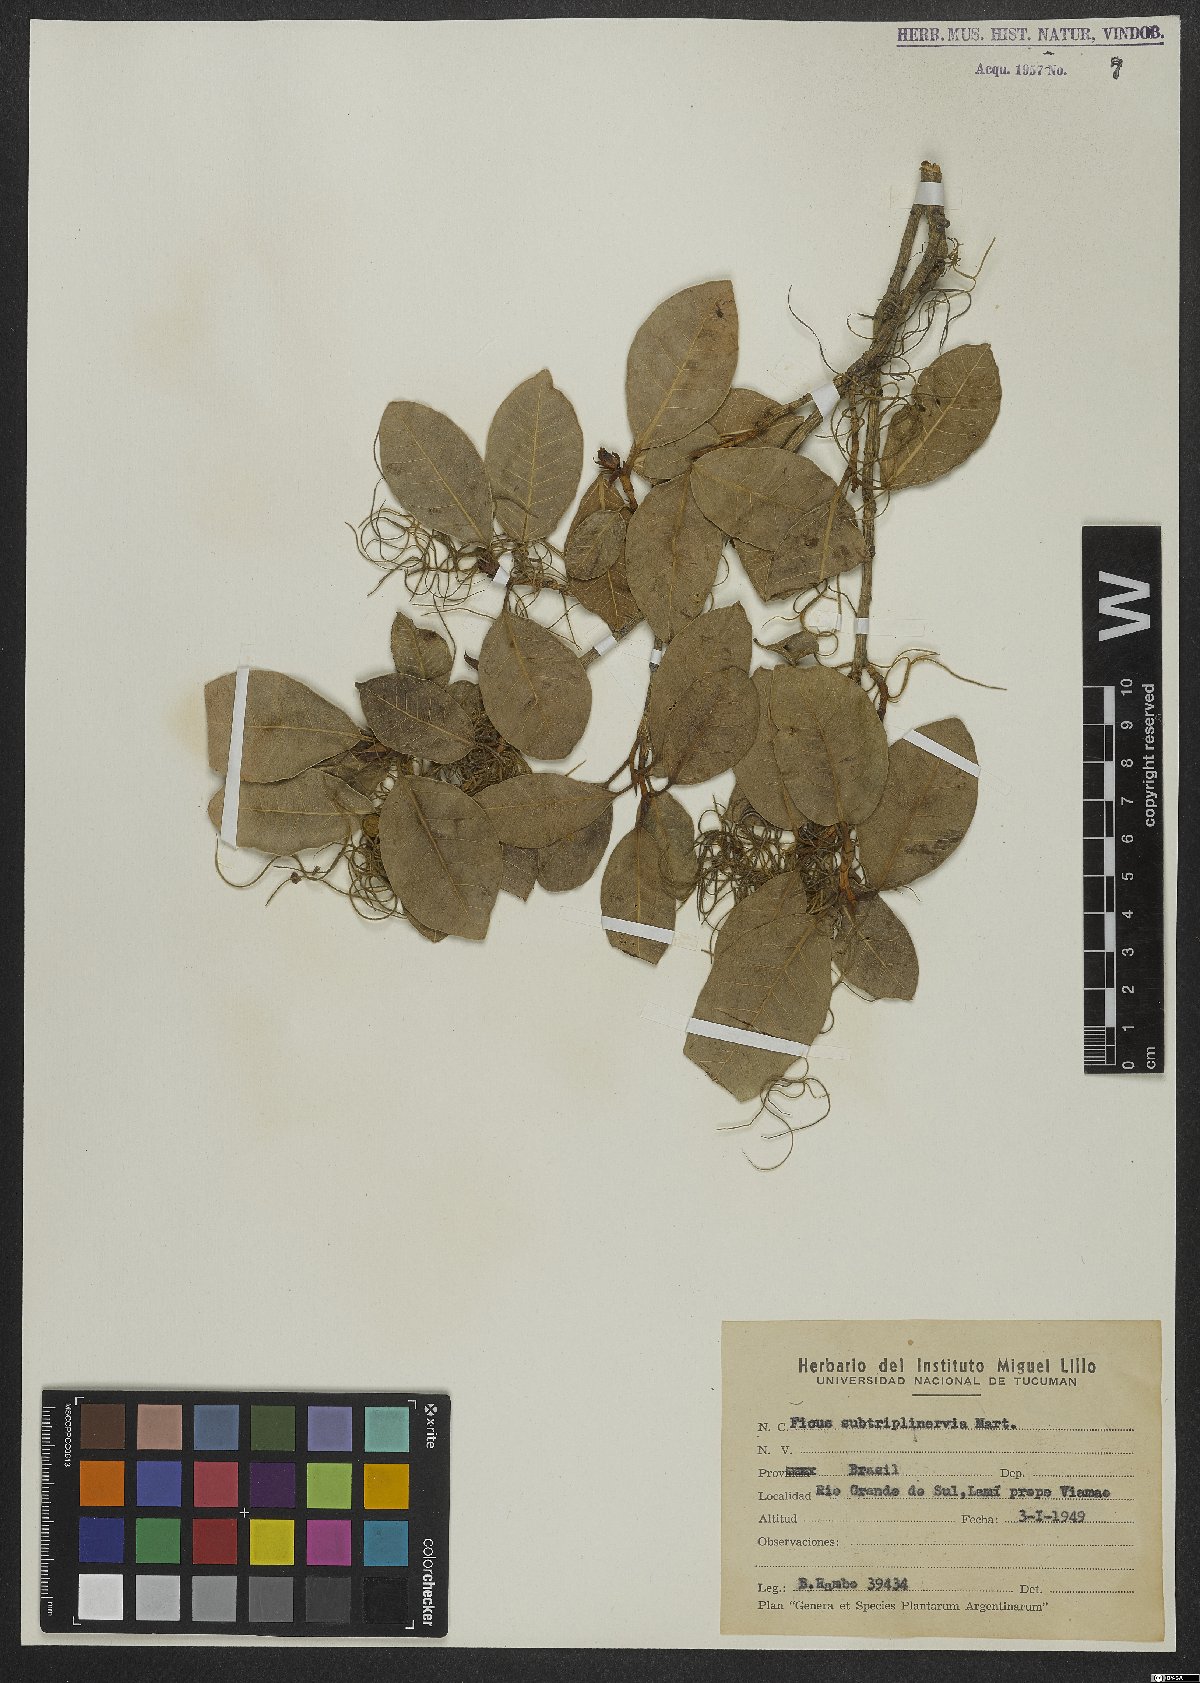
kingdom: Plantae
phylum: Tracheophyta
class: Magnoliopsida
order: Rosales
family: Moraceae
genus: Ficus
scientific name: Ficus pertusa
